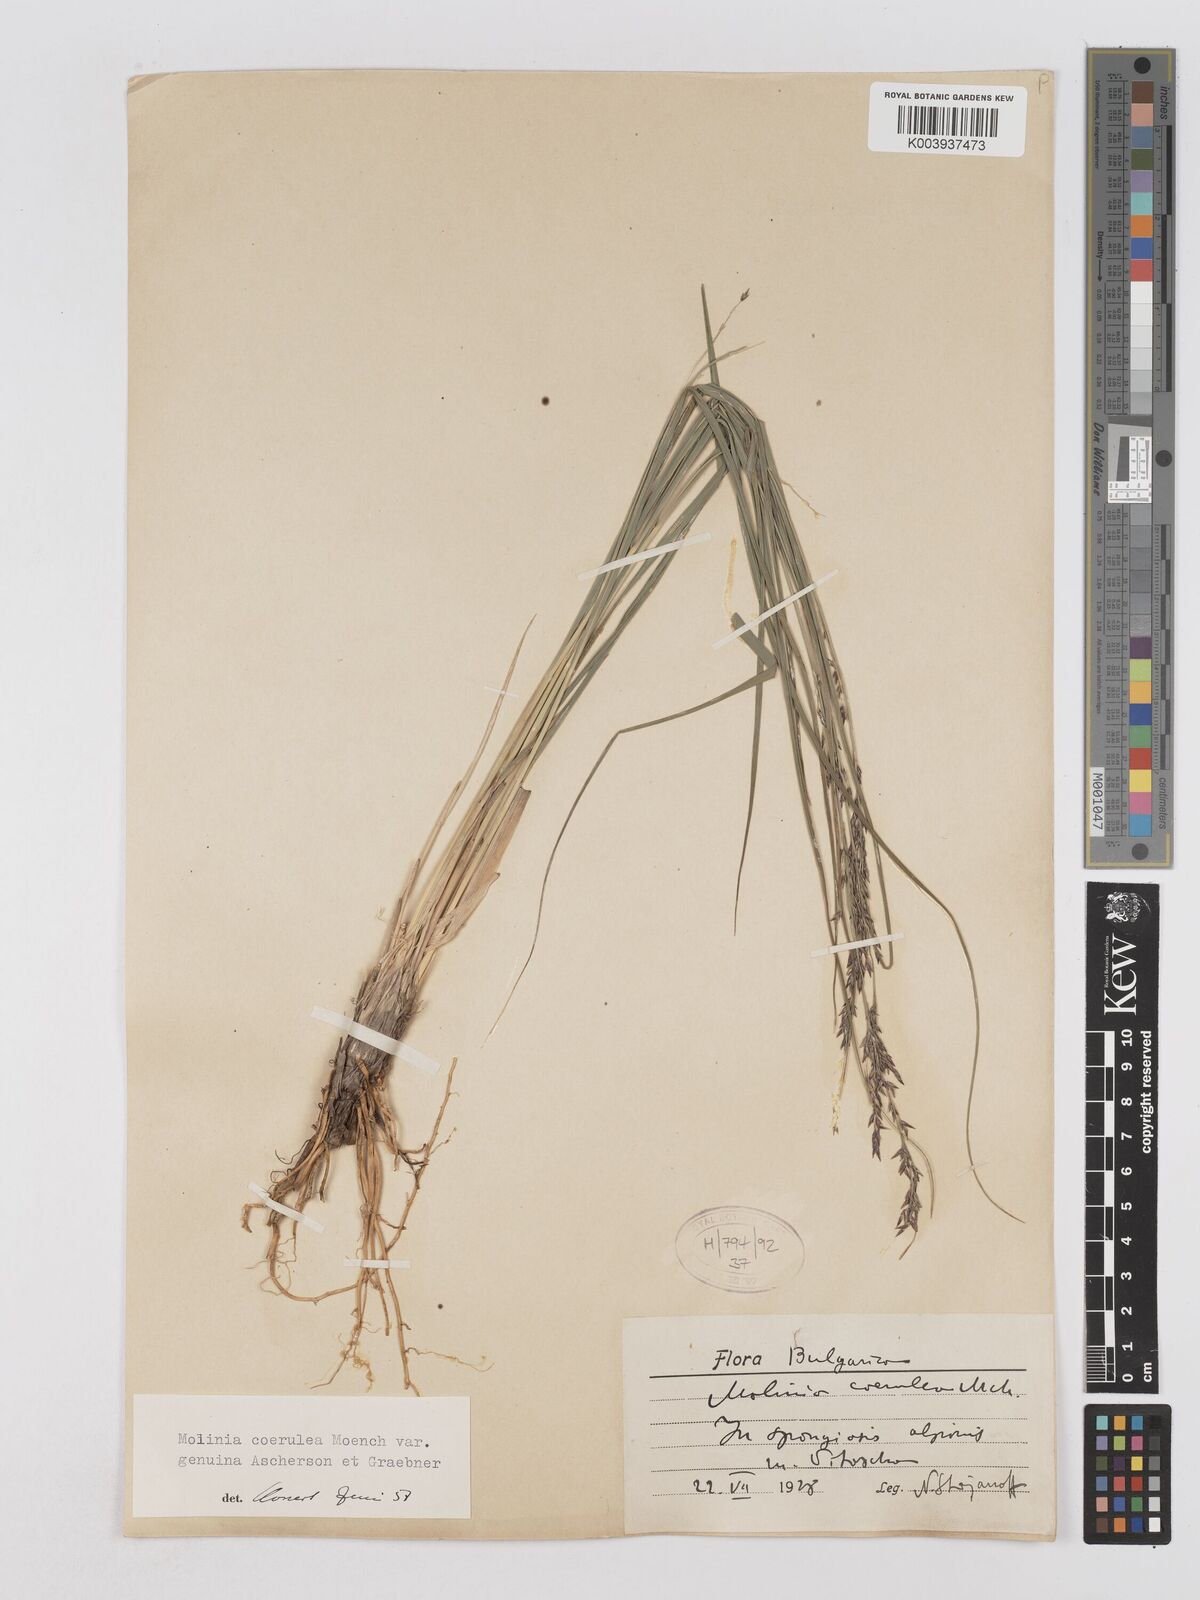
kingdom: Plantae
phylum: Tracheophyta
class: Liliopsida
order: Poales
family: Poaceae
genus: Molinia
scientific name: Molinia caerulea
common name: Purple moor-grass
